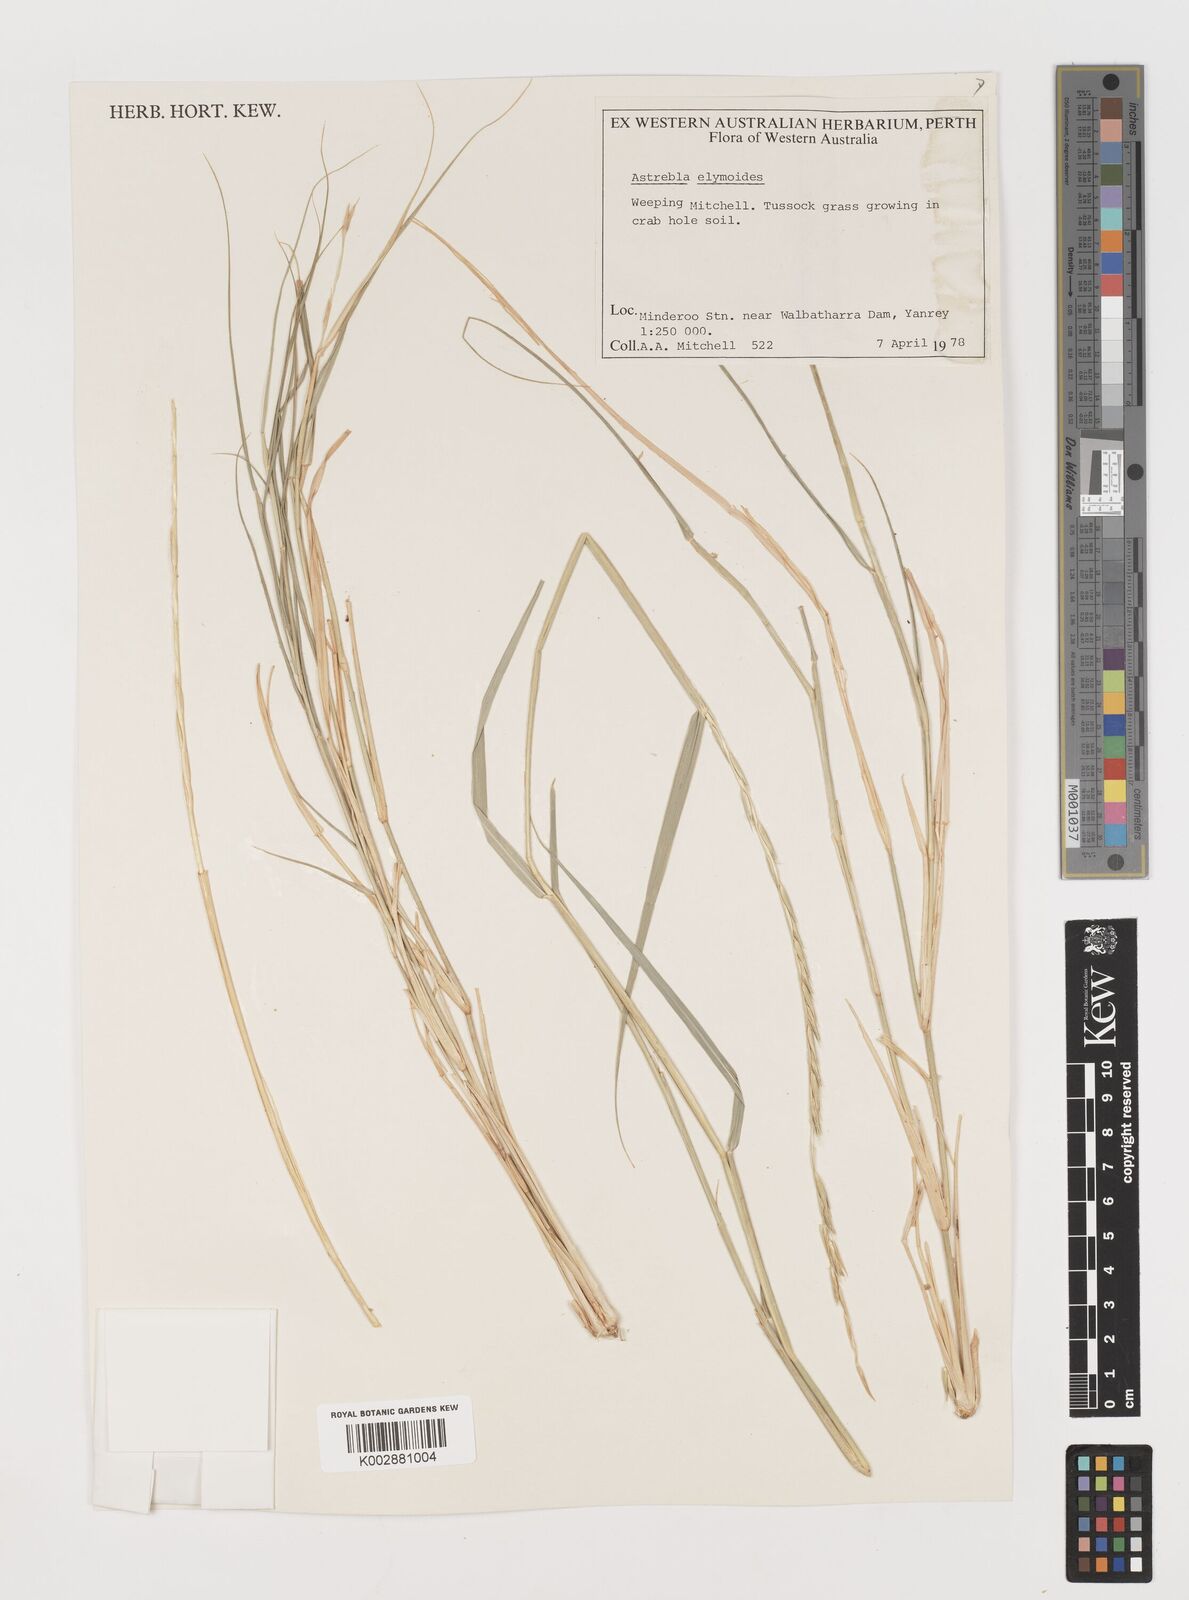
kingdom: Plantae
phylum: Tracheophyta
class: Liliopsida
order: Poales
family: Poaceae
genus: Astrebla
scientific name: Astrebla elymoides
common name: Hoop mitchell grass
